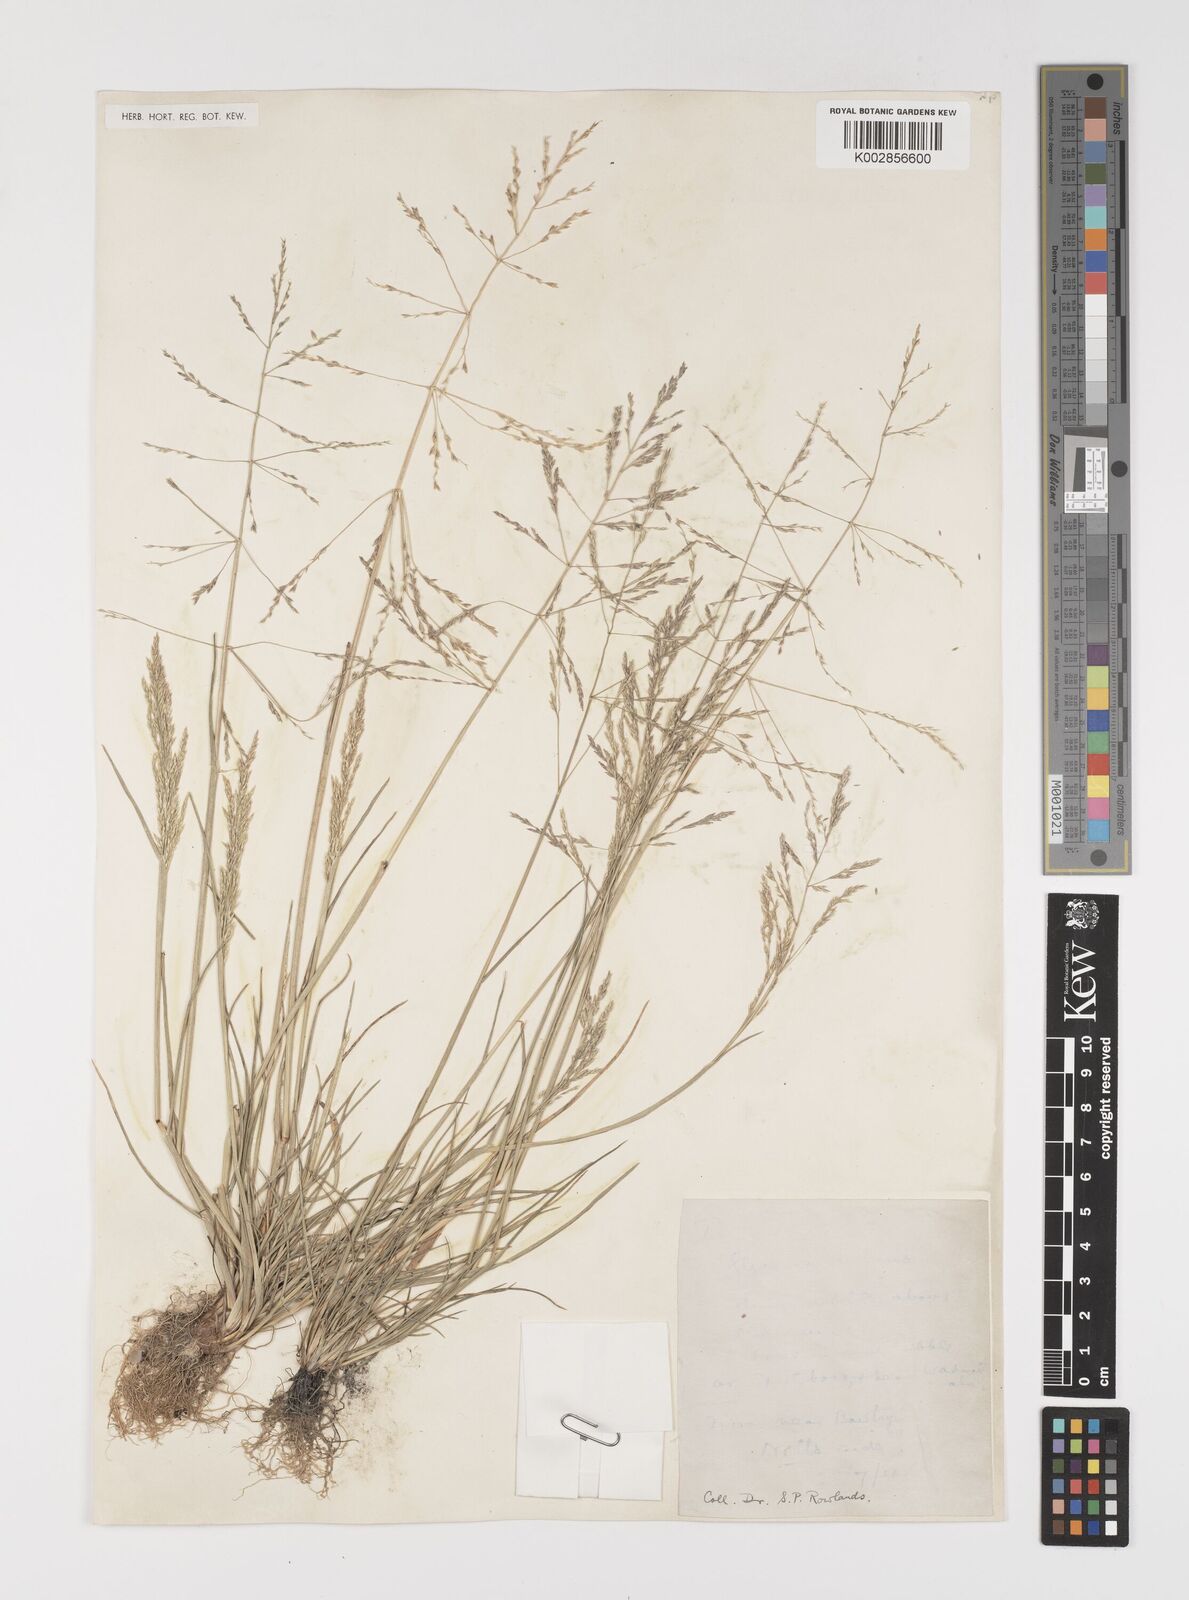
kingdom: Plantae
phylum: Tracheophyta
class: Liliopsida
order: Poales
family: Poaceae
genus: Puccinellia
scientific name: Puccinellia distans
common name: Weeping alkaligrass
